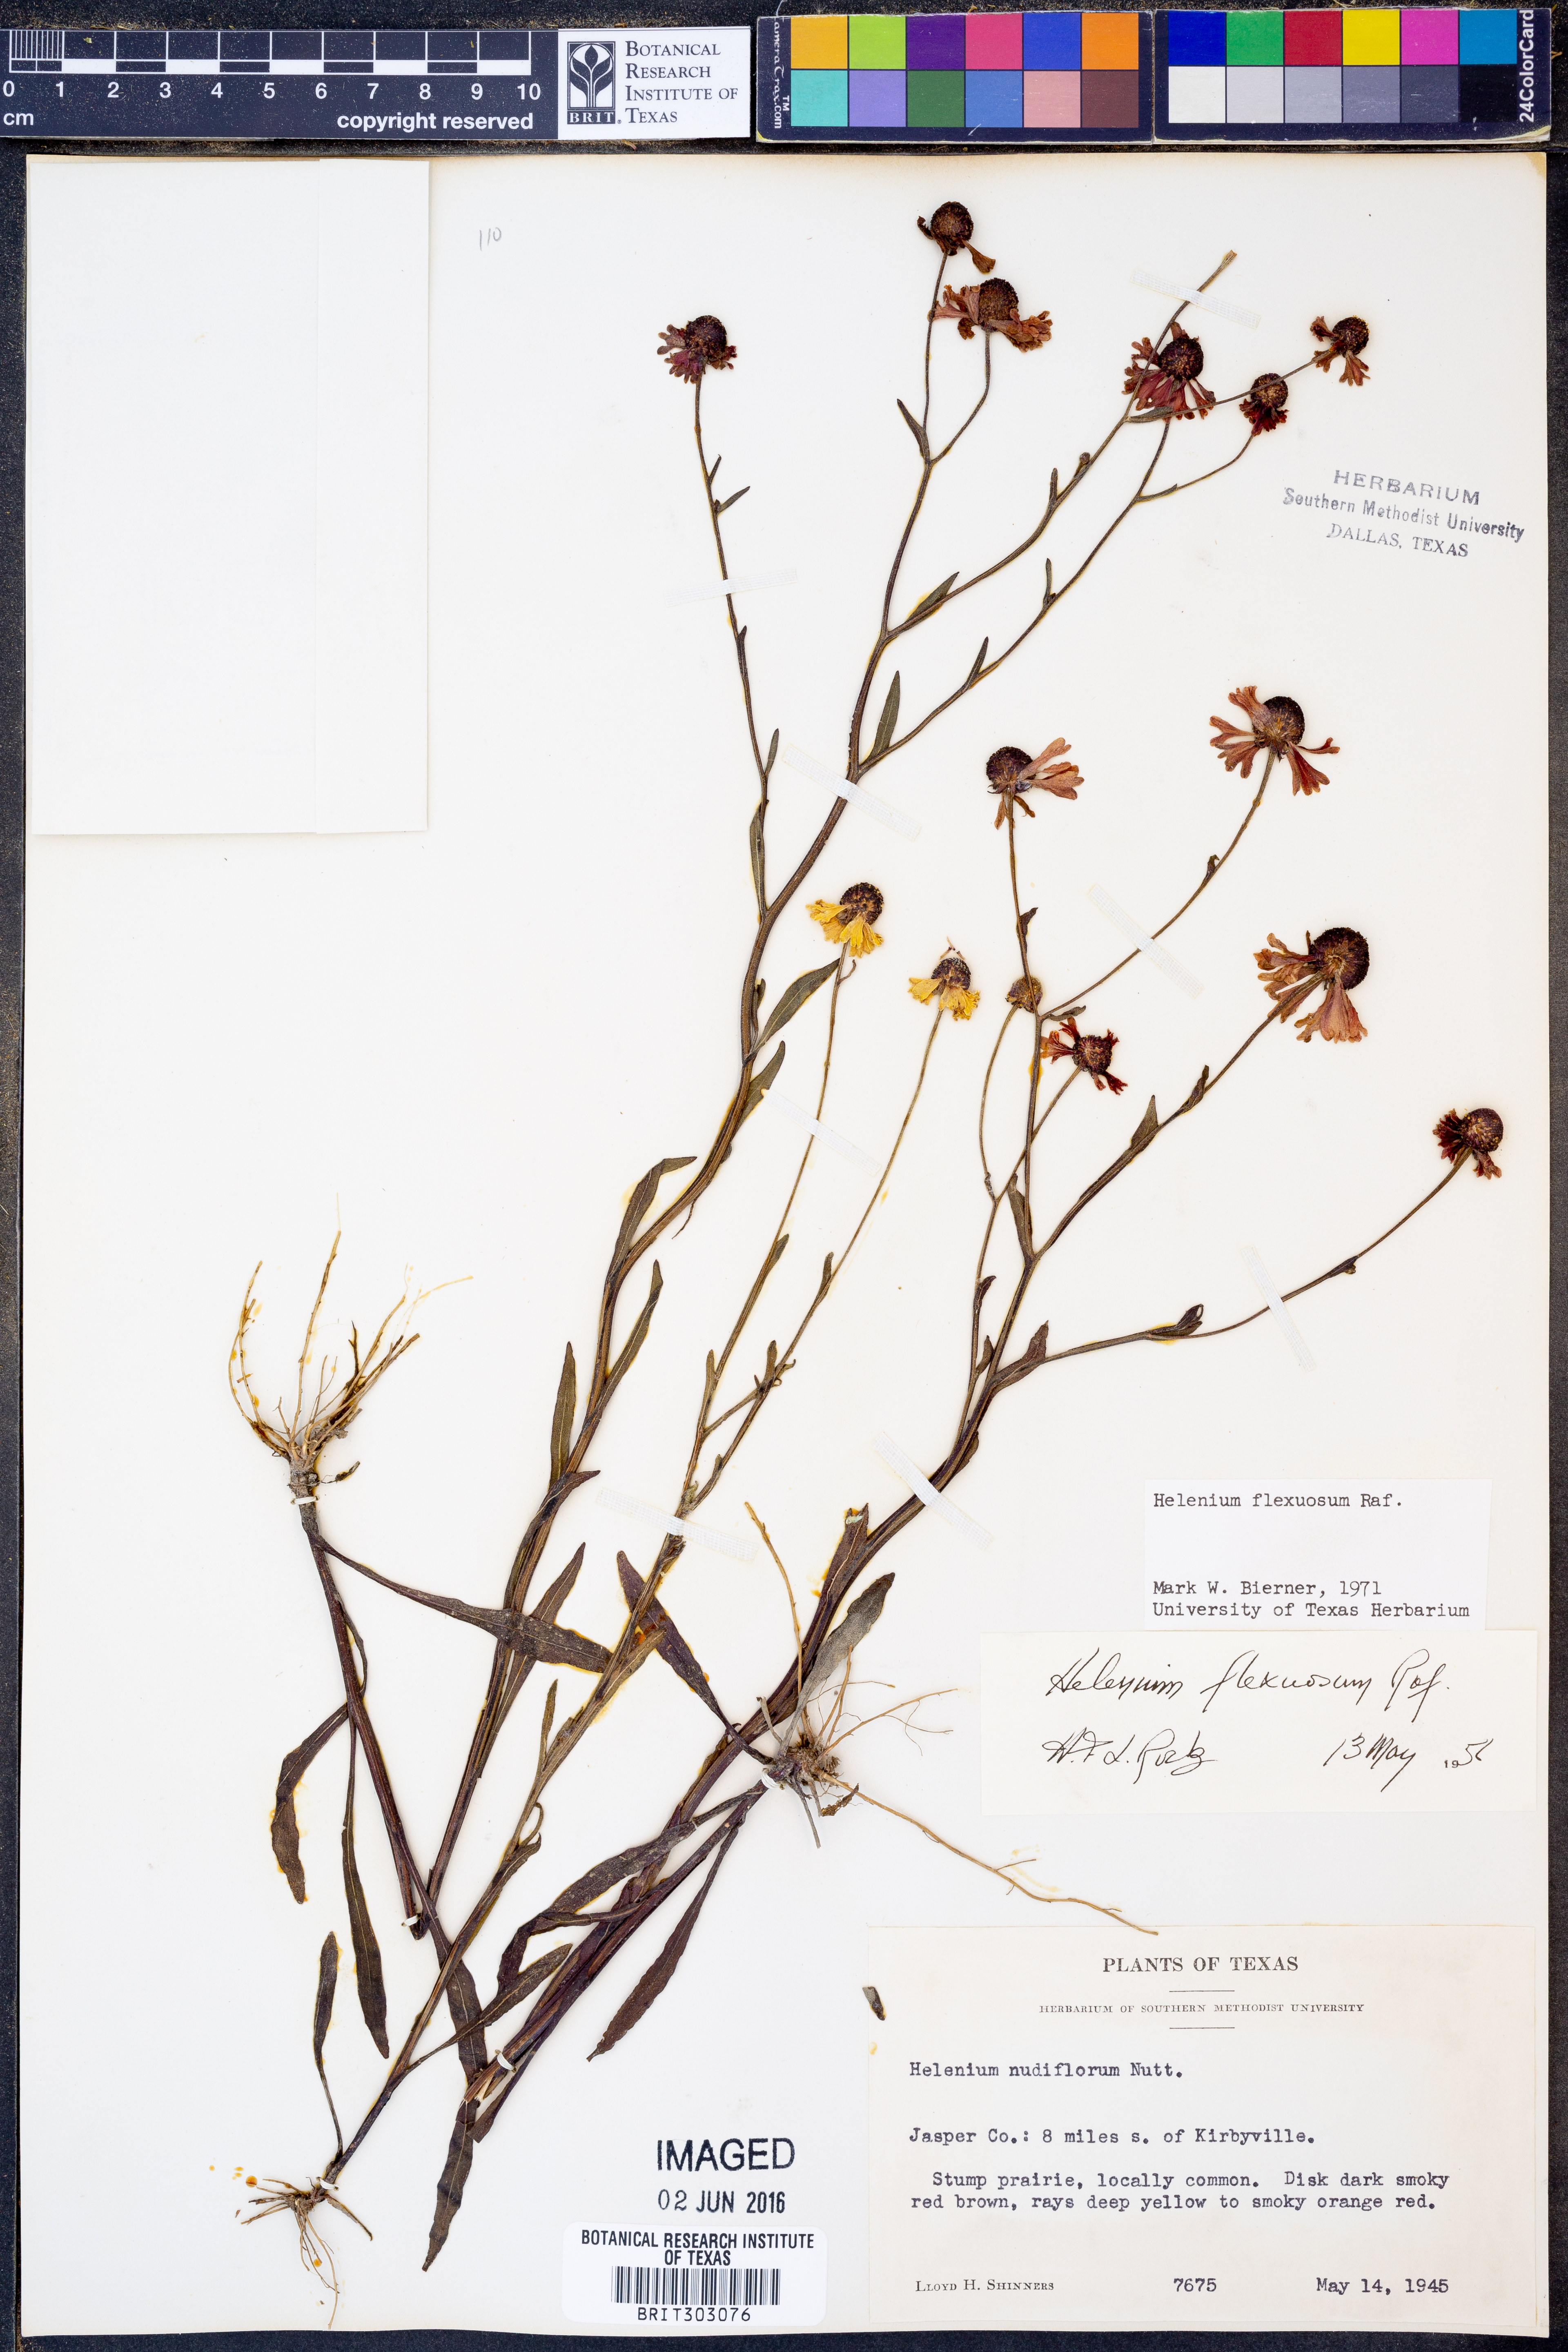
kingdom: Plantae
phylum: Tracheophyta
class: Magnoliopsida
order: Asterales
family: Asteraceae
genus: Helenium
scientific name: Helenium flexuosum
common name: Naked-flowered sneezeweed
